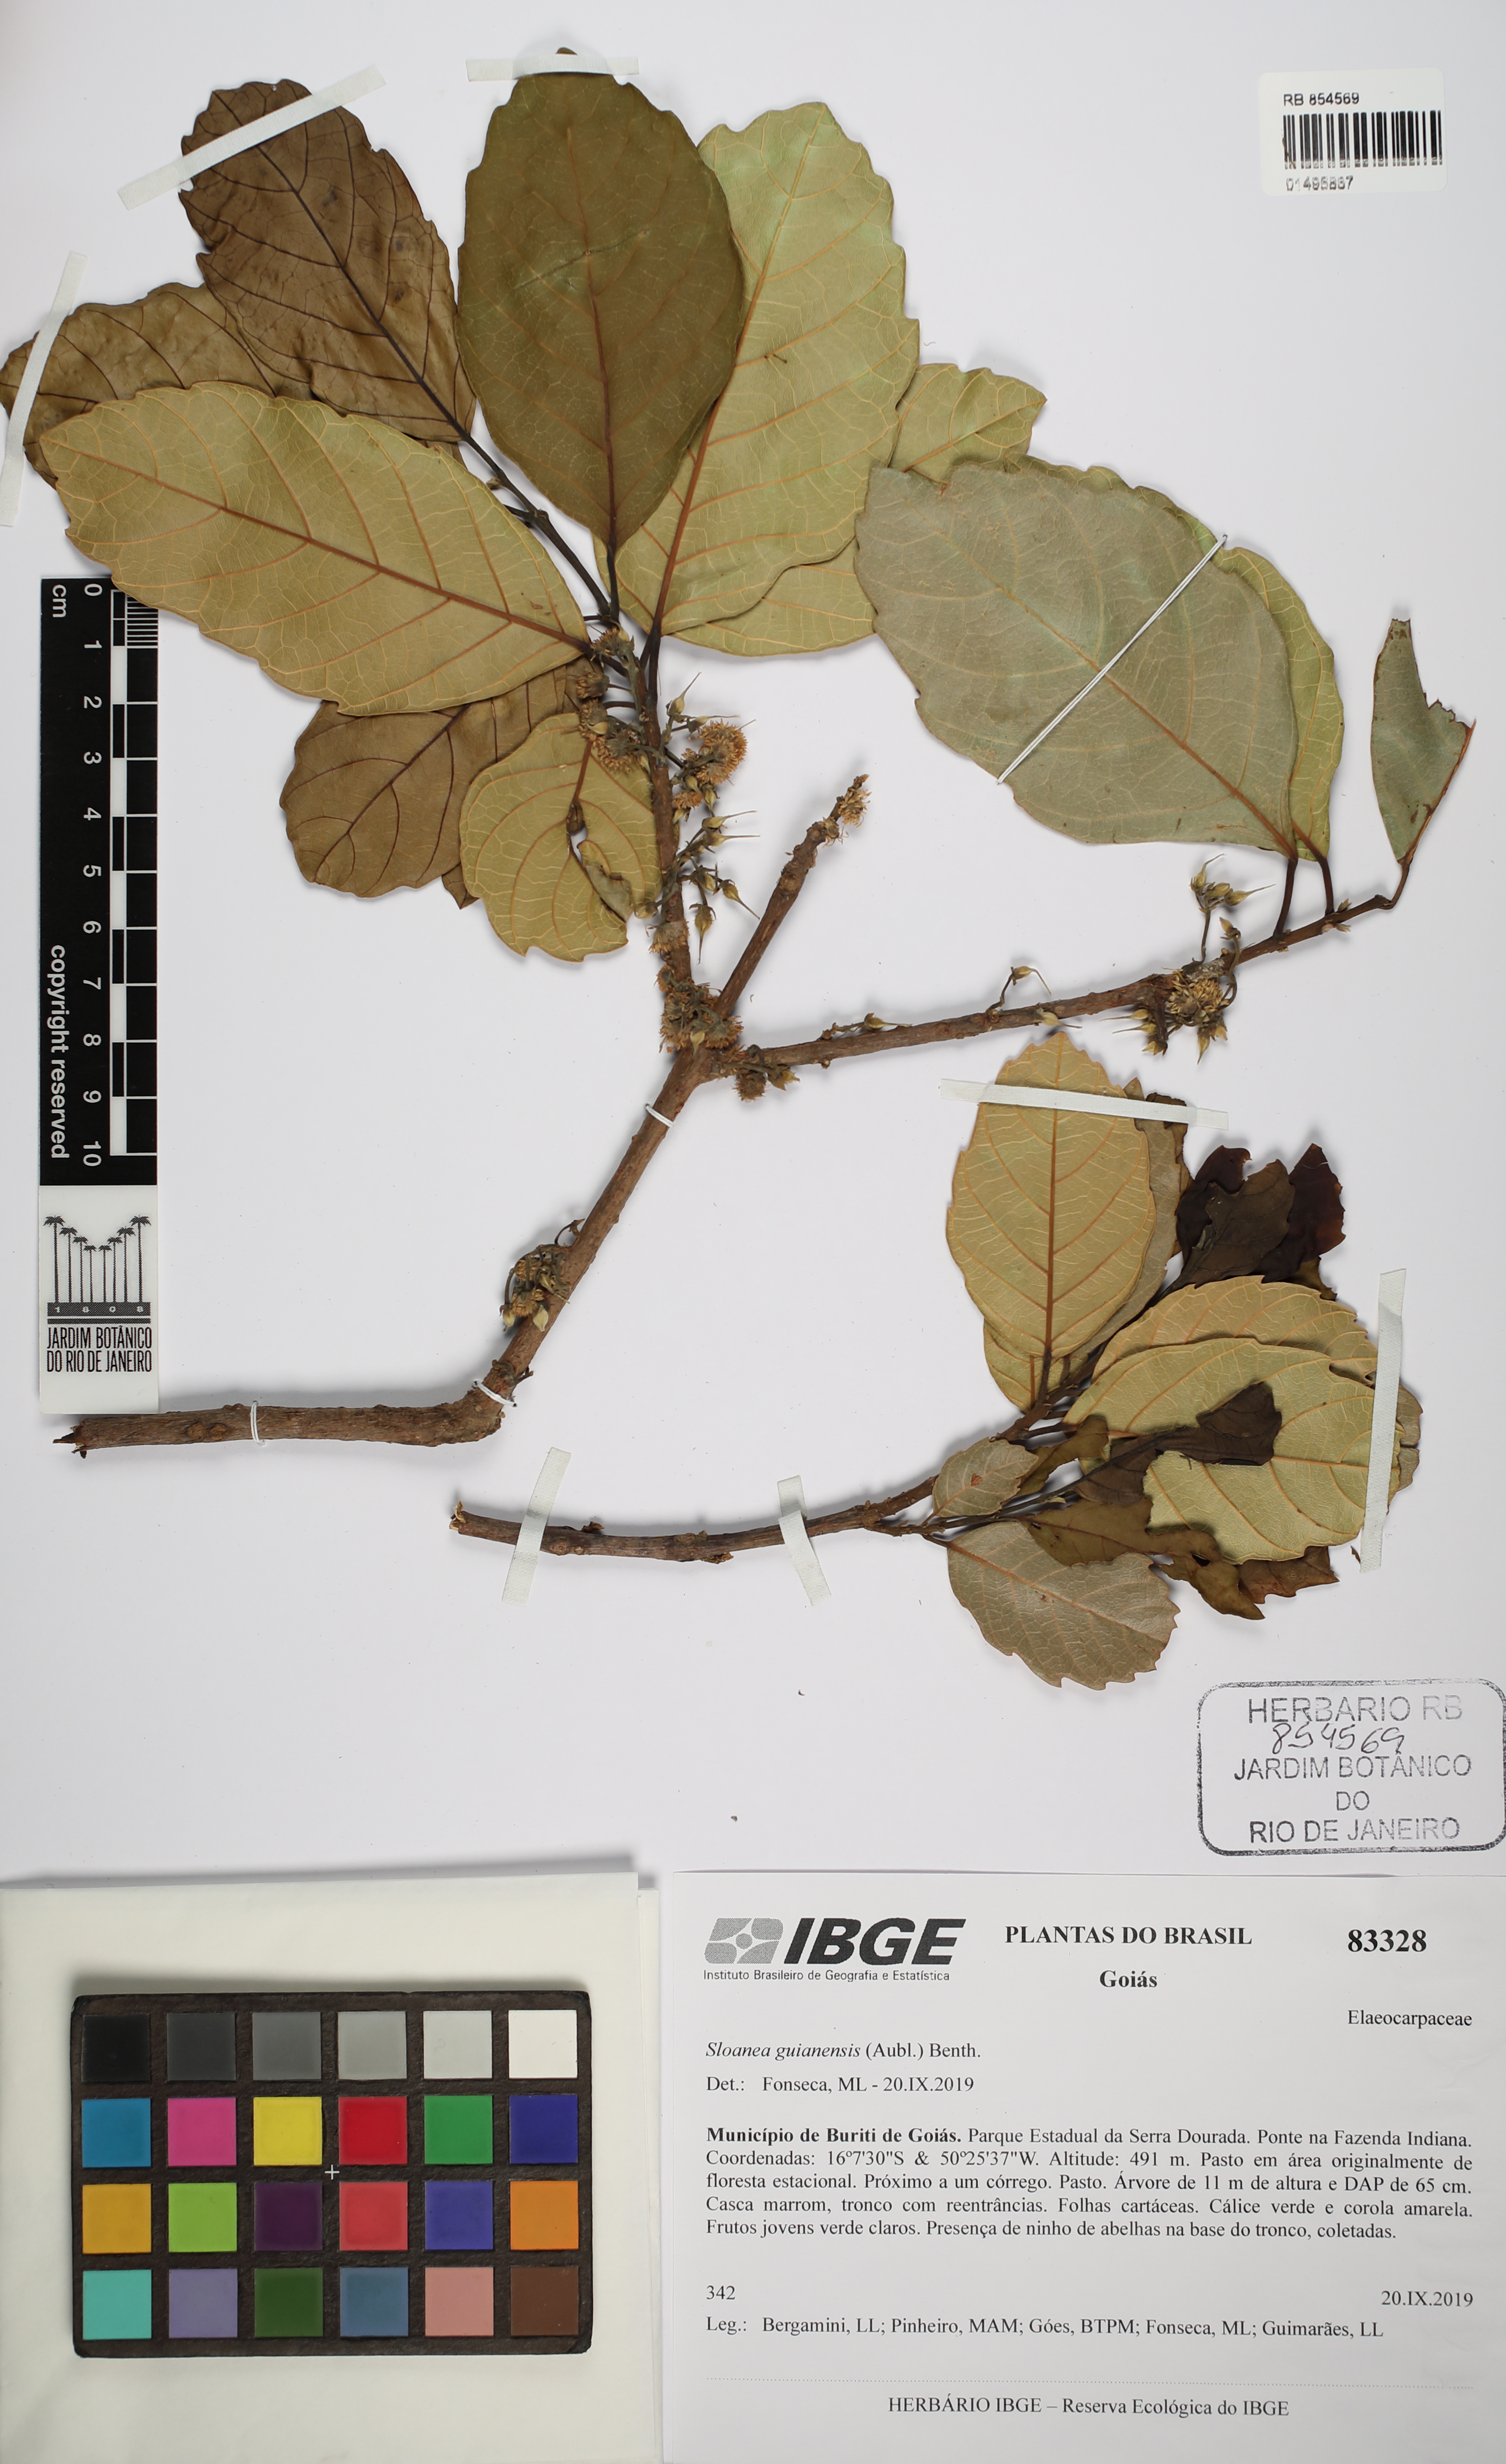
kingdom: Plantae
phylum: Tracheophyta
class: Magnoliopsida
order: Oxalidales
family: Elaeocarpaceae
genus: Sloanea
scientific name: Sloanea guianensis
